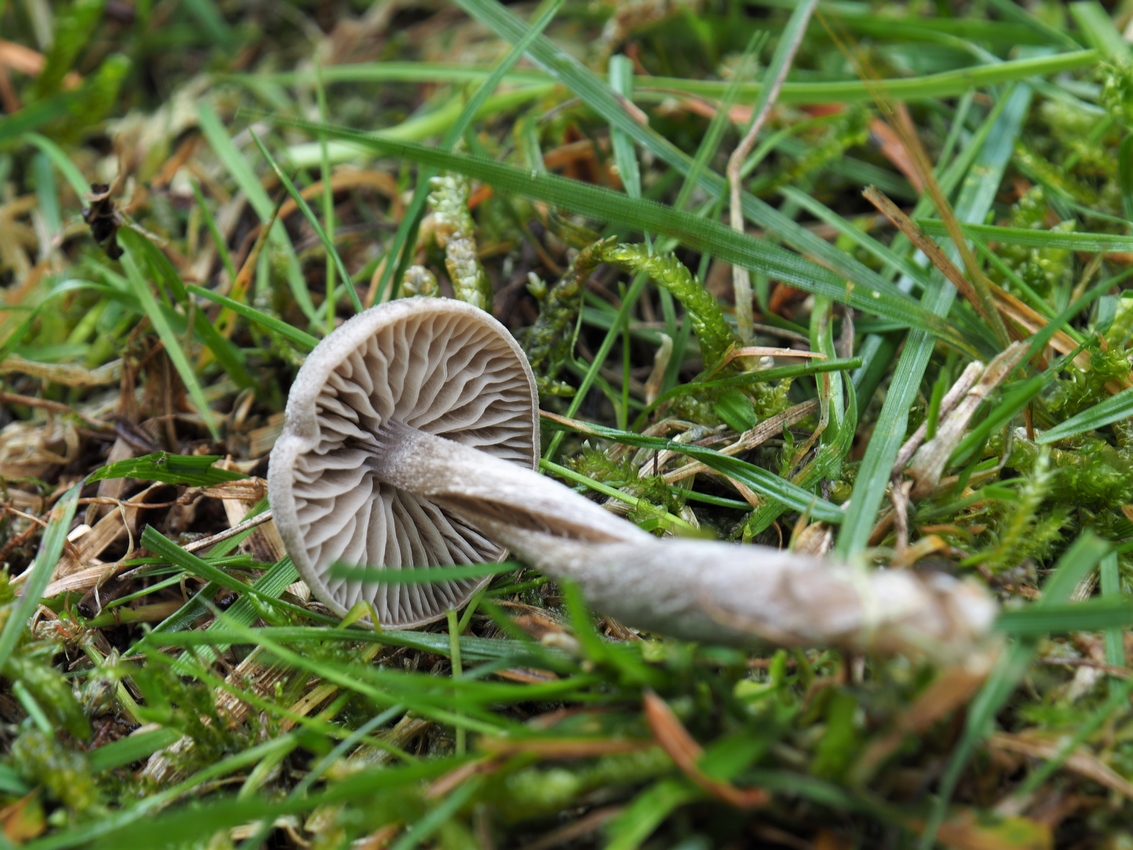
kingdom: Fungi
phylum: Basidiomycota
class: Agaricomycetes
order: Agaricales
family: Entolomataceae
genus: Entoloma
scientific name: Entoloma ortonii
